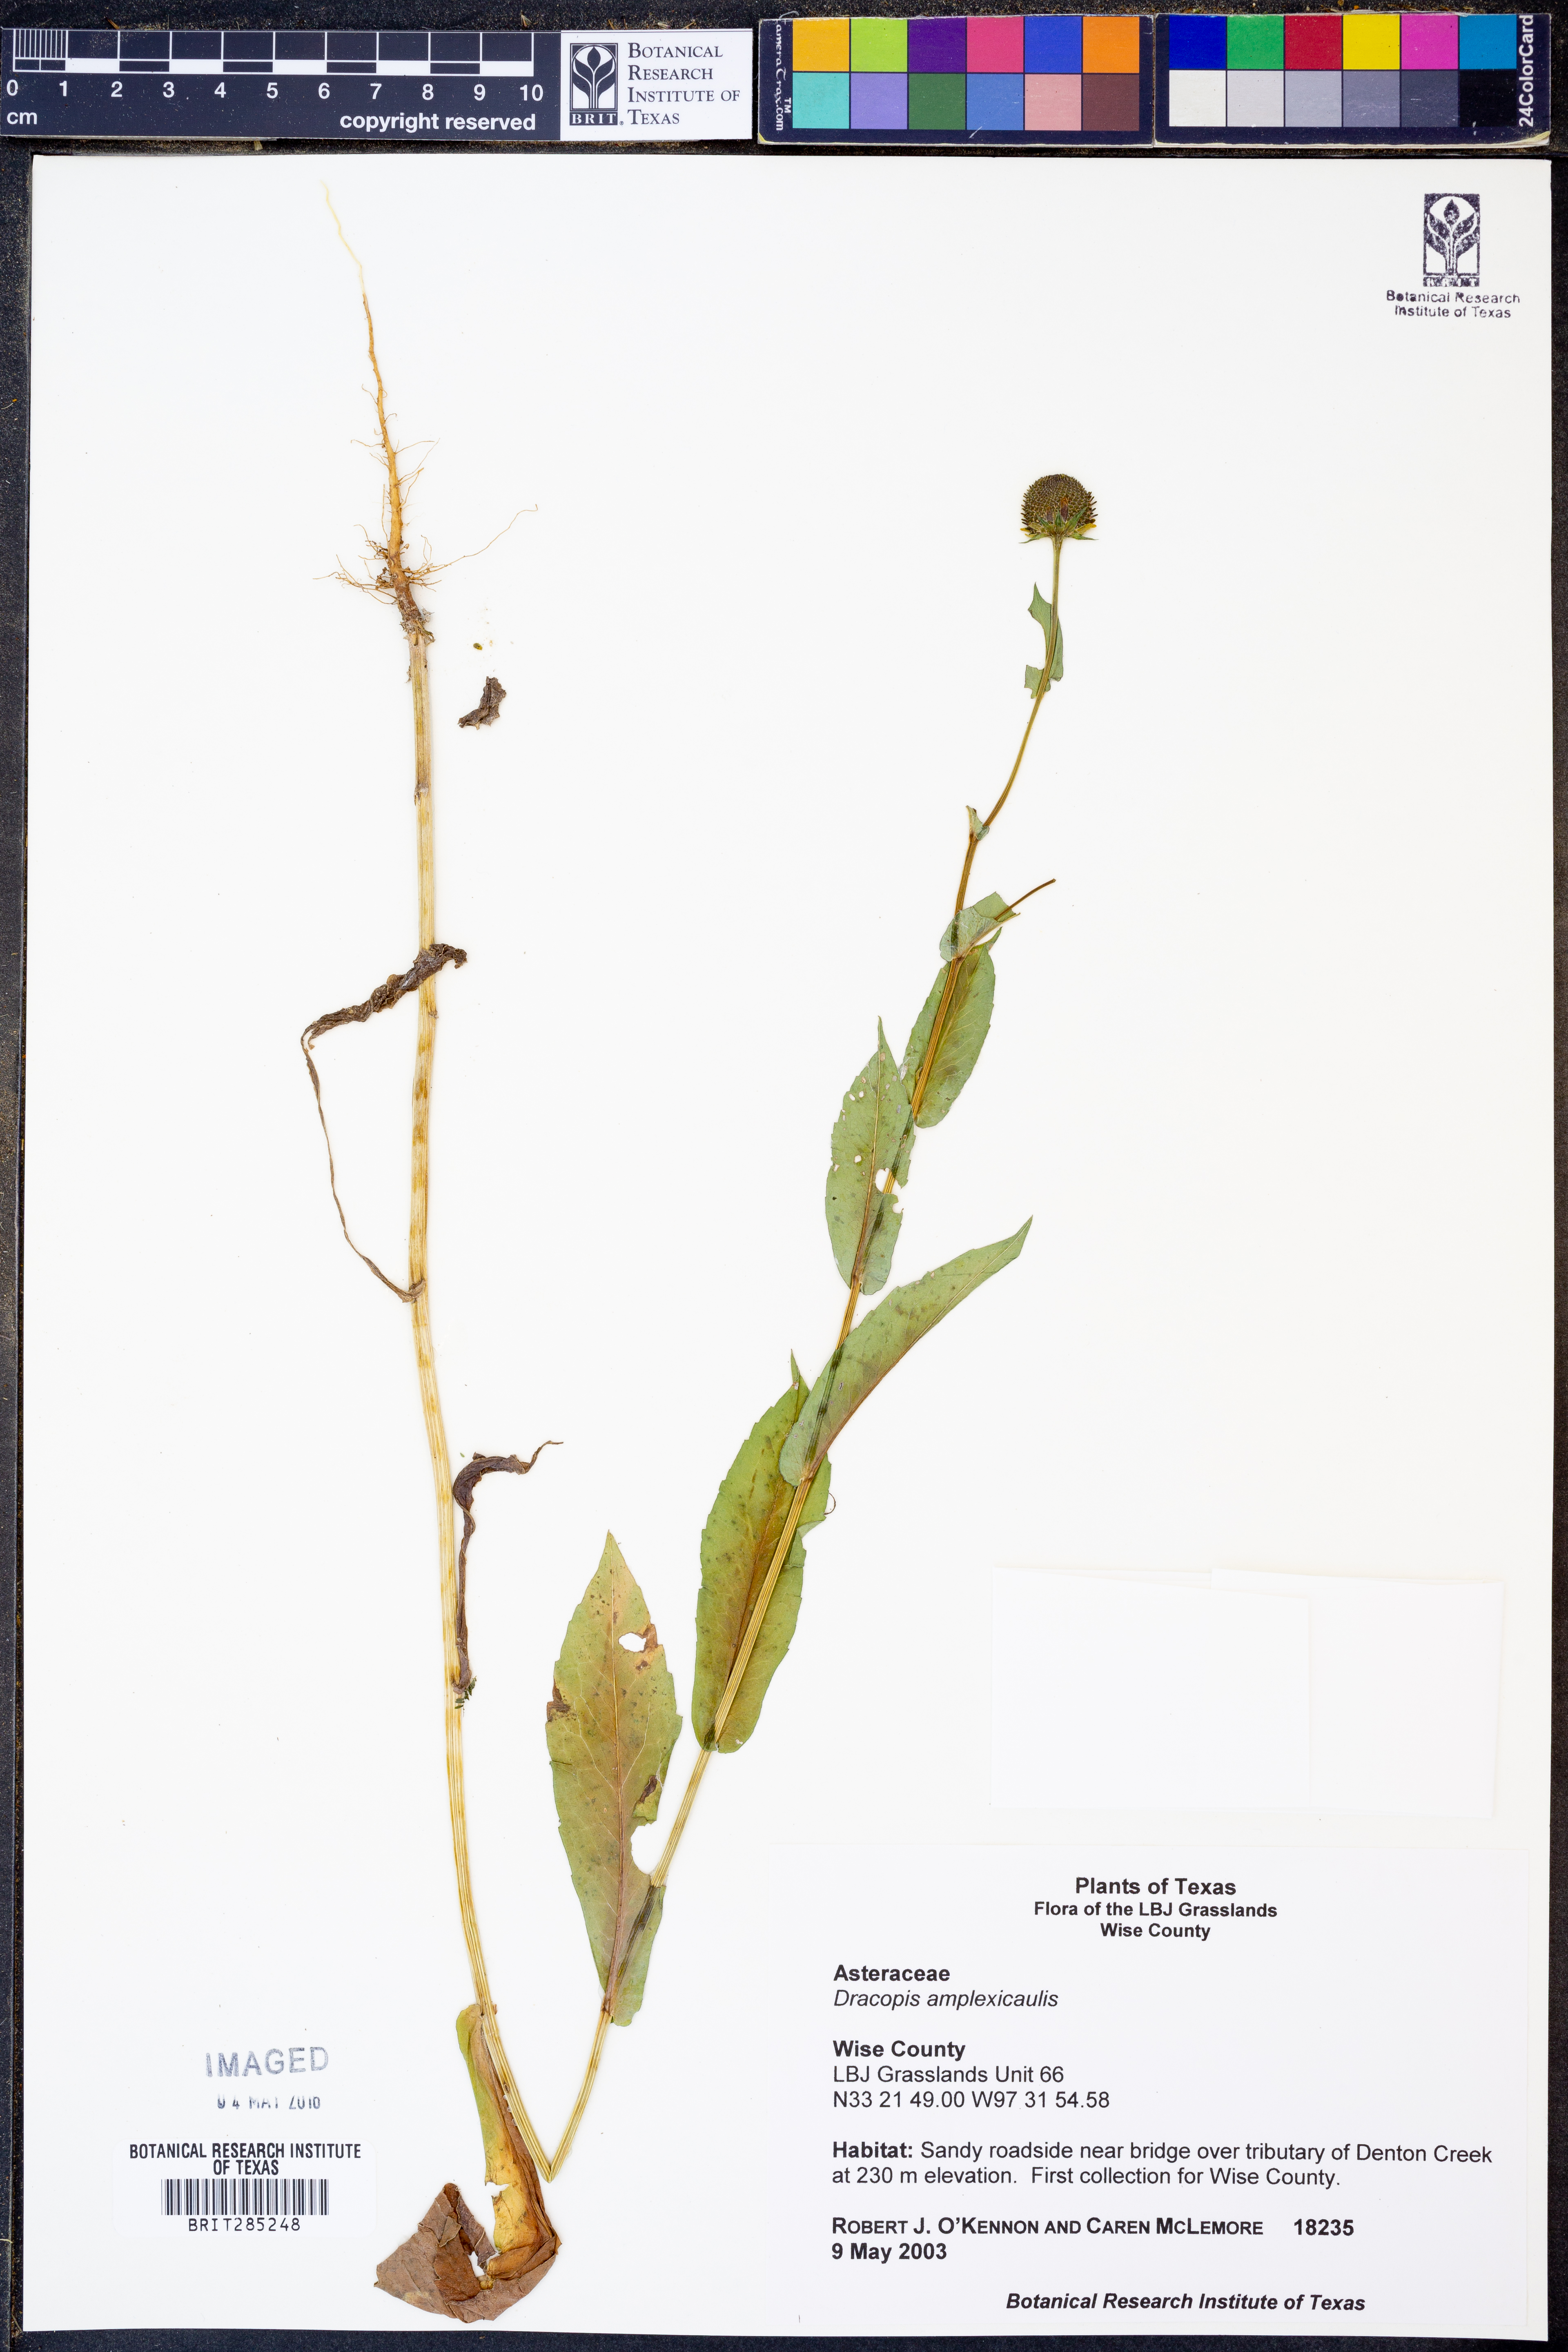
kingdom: Plantae
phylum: Tracheophyta
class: Magnoliopsida
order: Asterales
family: Asteraceae
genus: Rudbeckia
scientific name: Rudbeckia amplexicaulis
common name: Clasping-leaf coneflower
